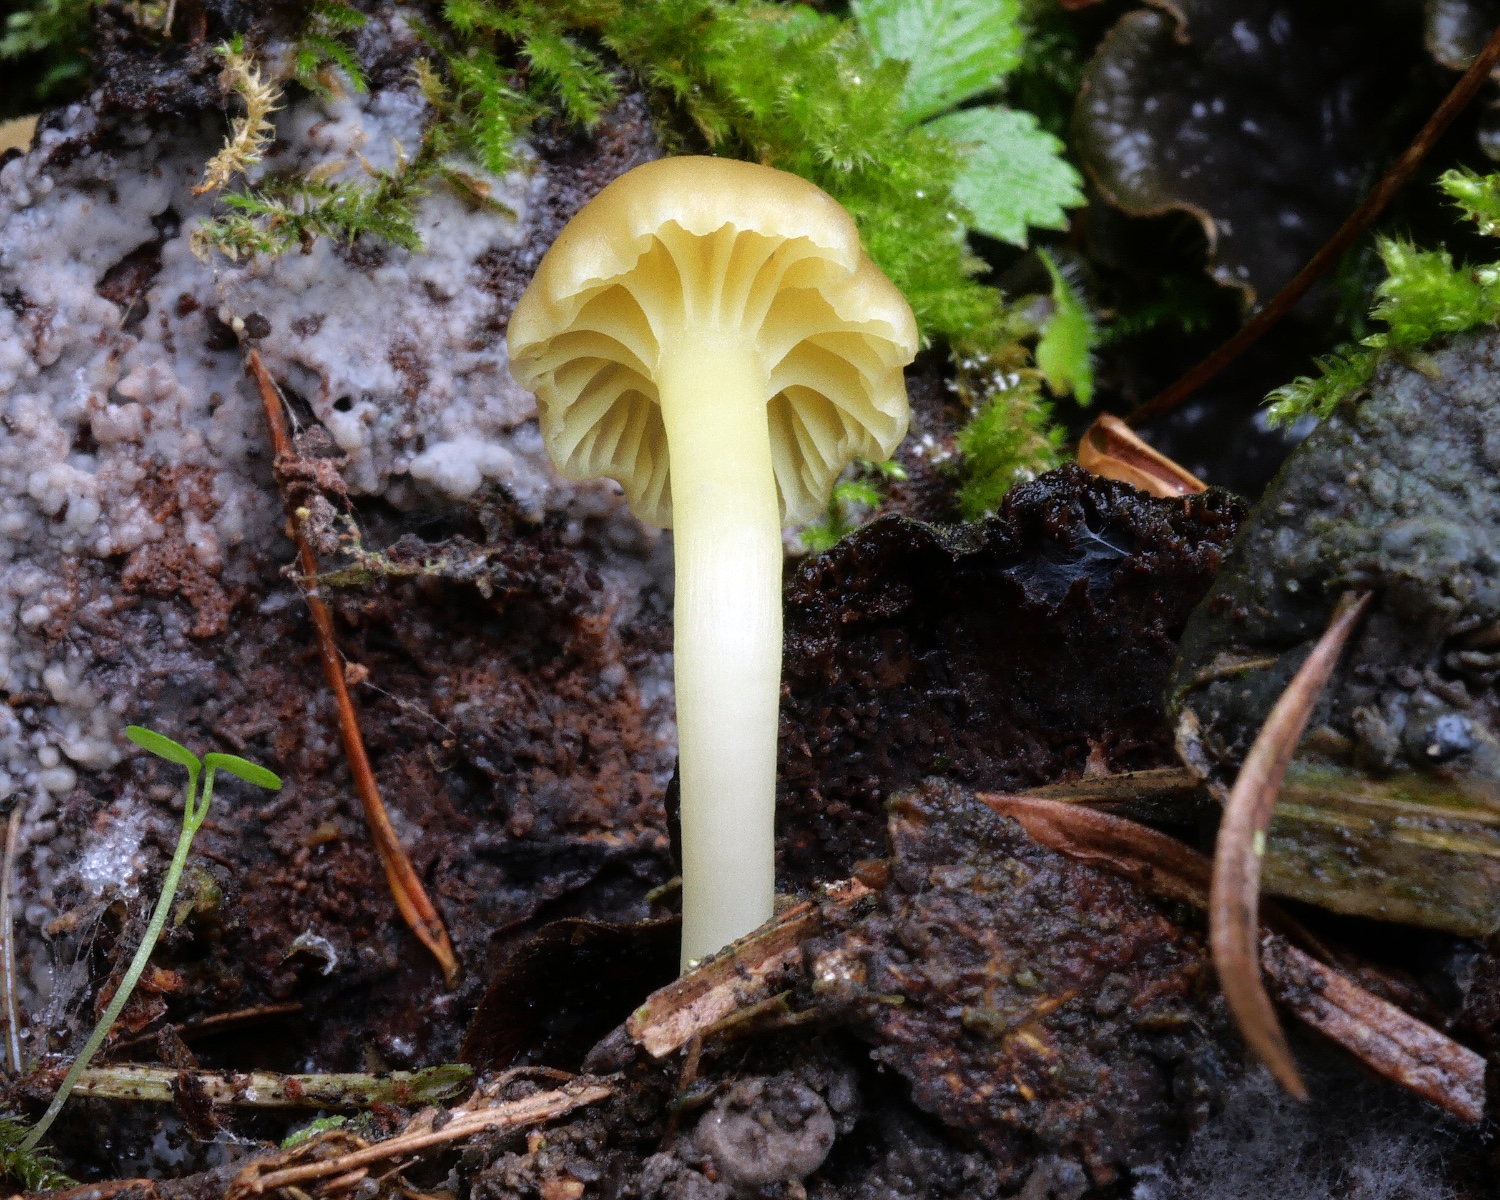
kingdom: Fungi
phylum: Basidiomycota
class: Agaricomycetes
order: Agaricales
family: Hygrophoraceae
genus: Chrysomphalina
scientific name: Chrysomphalina grossula
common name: stød-gyldenblad
